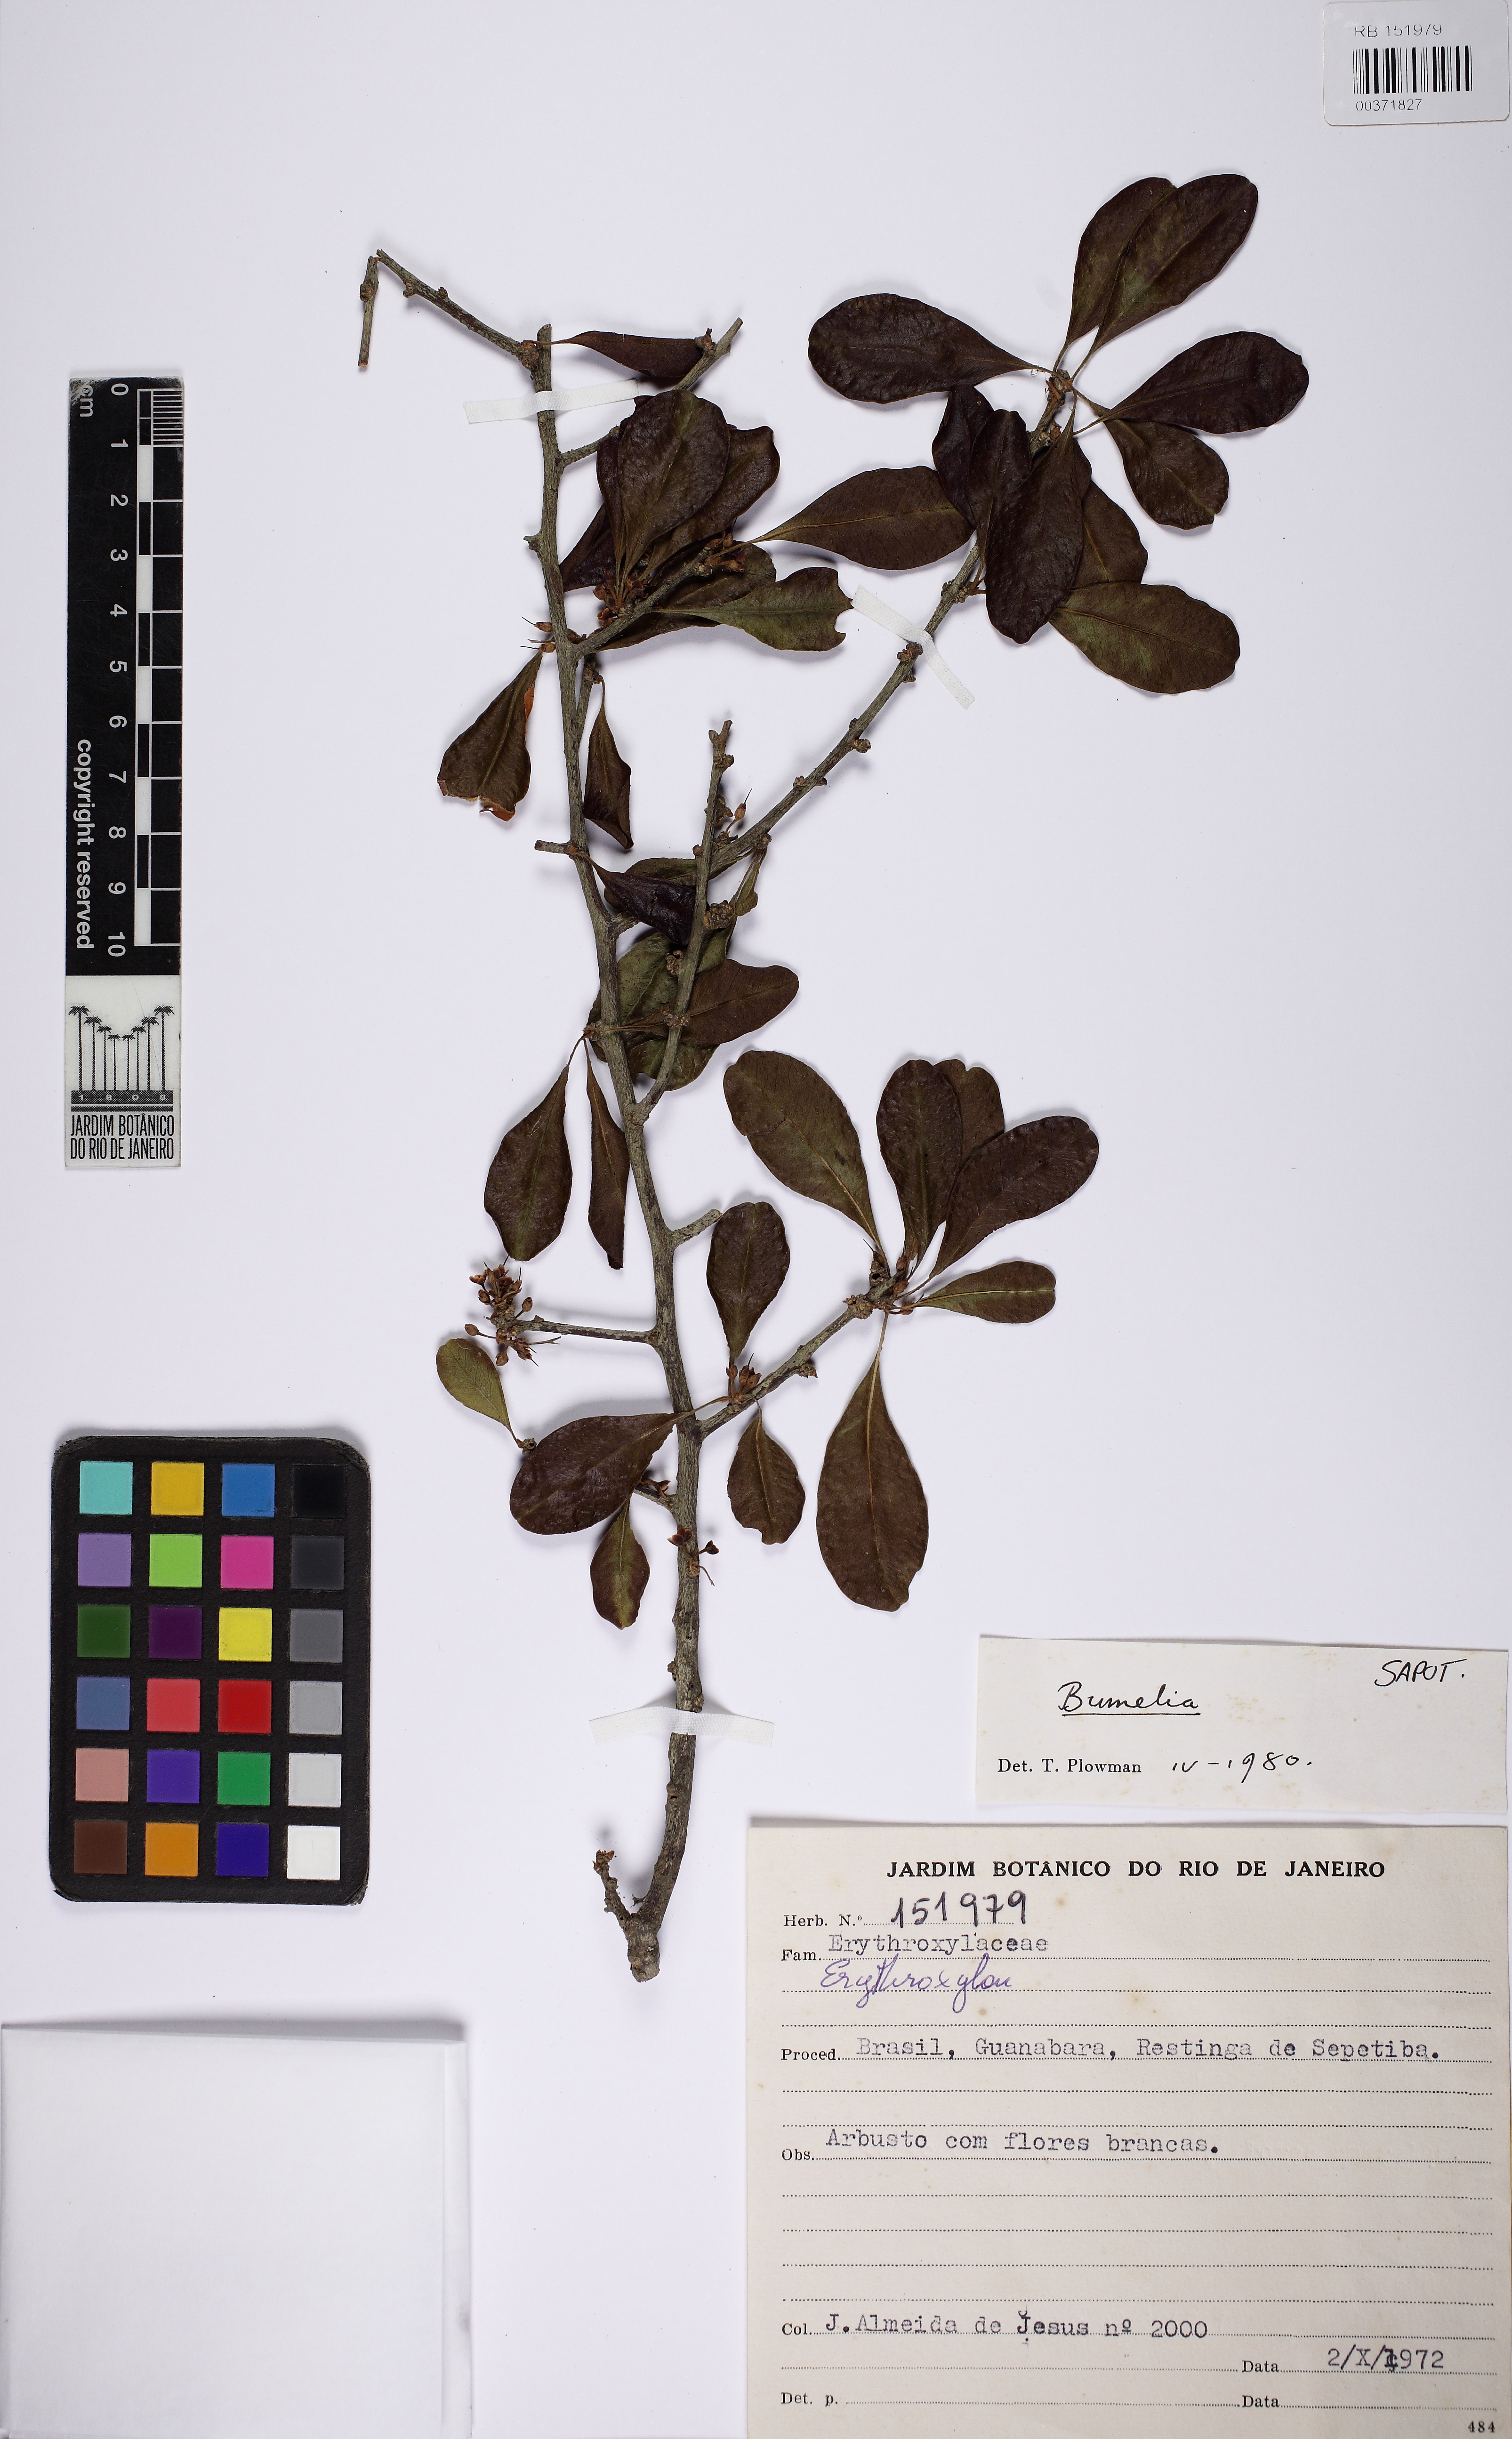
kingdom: Plantae
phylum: Tracheophyta
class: Magnoliopsida
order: Ericales
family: Sapotaceae
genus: Sideroxylon
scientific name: Sideroxylon
